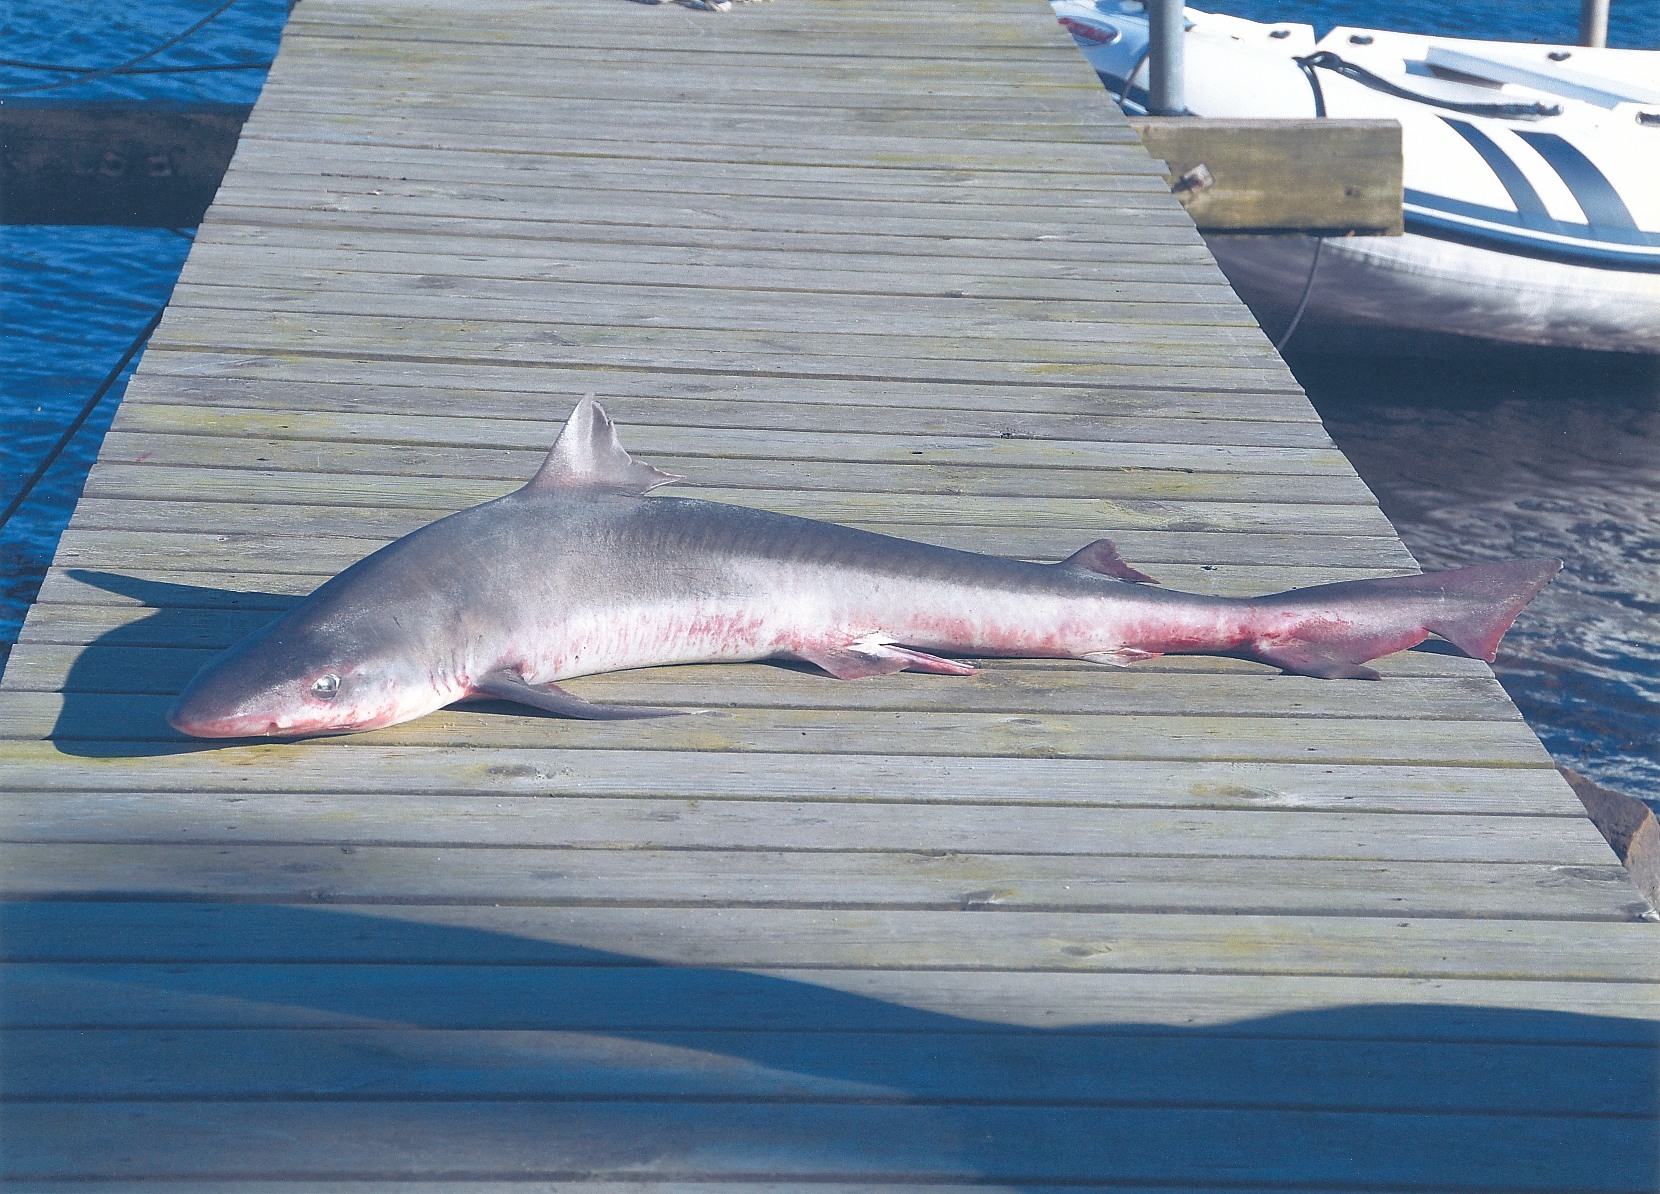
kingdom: Animalia
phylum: Chordata
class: Elasmobranchii
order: Carcharhiniformes
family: Triakidae
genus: Galeorhinus
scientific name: Galeorhinus galeus
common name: Tope
